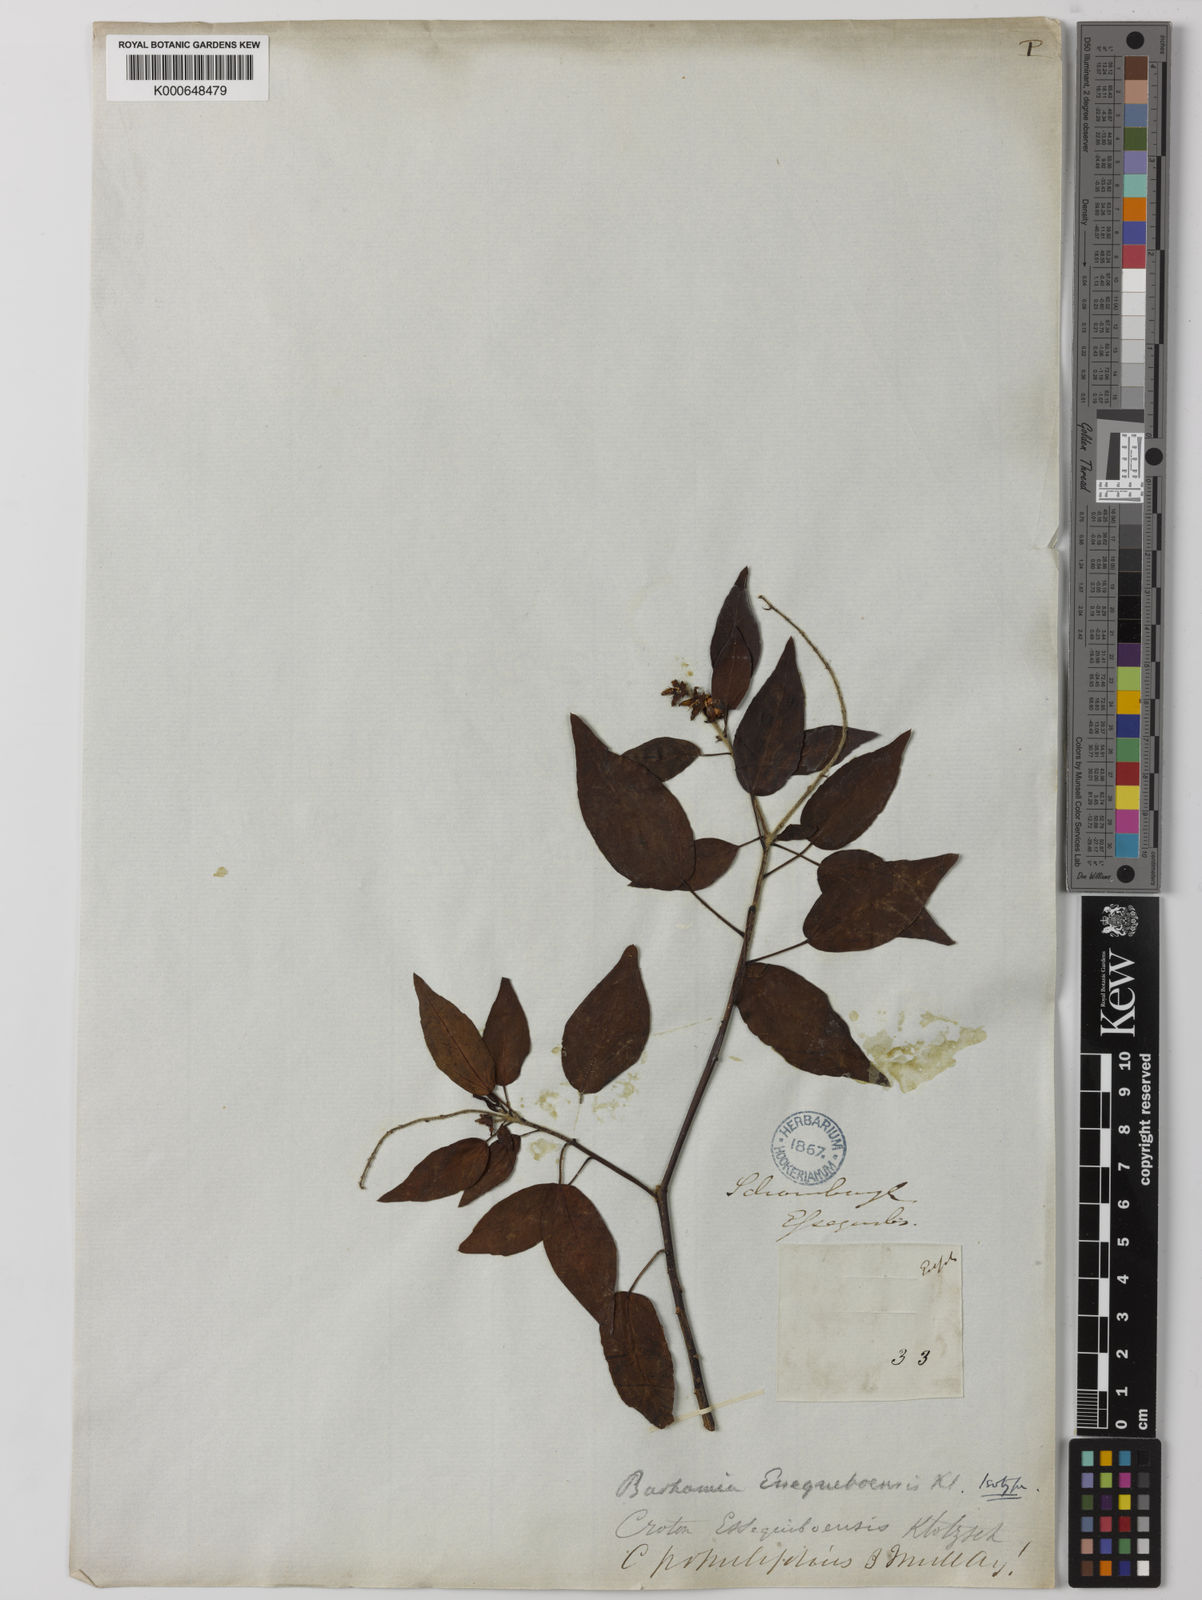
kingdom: Plantae
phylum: Tracheophyta
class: Magnoliopsida
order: Malpighiales
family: Euphorbiaceae
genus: Croton
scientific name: Croton
